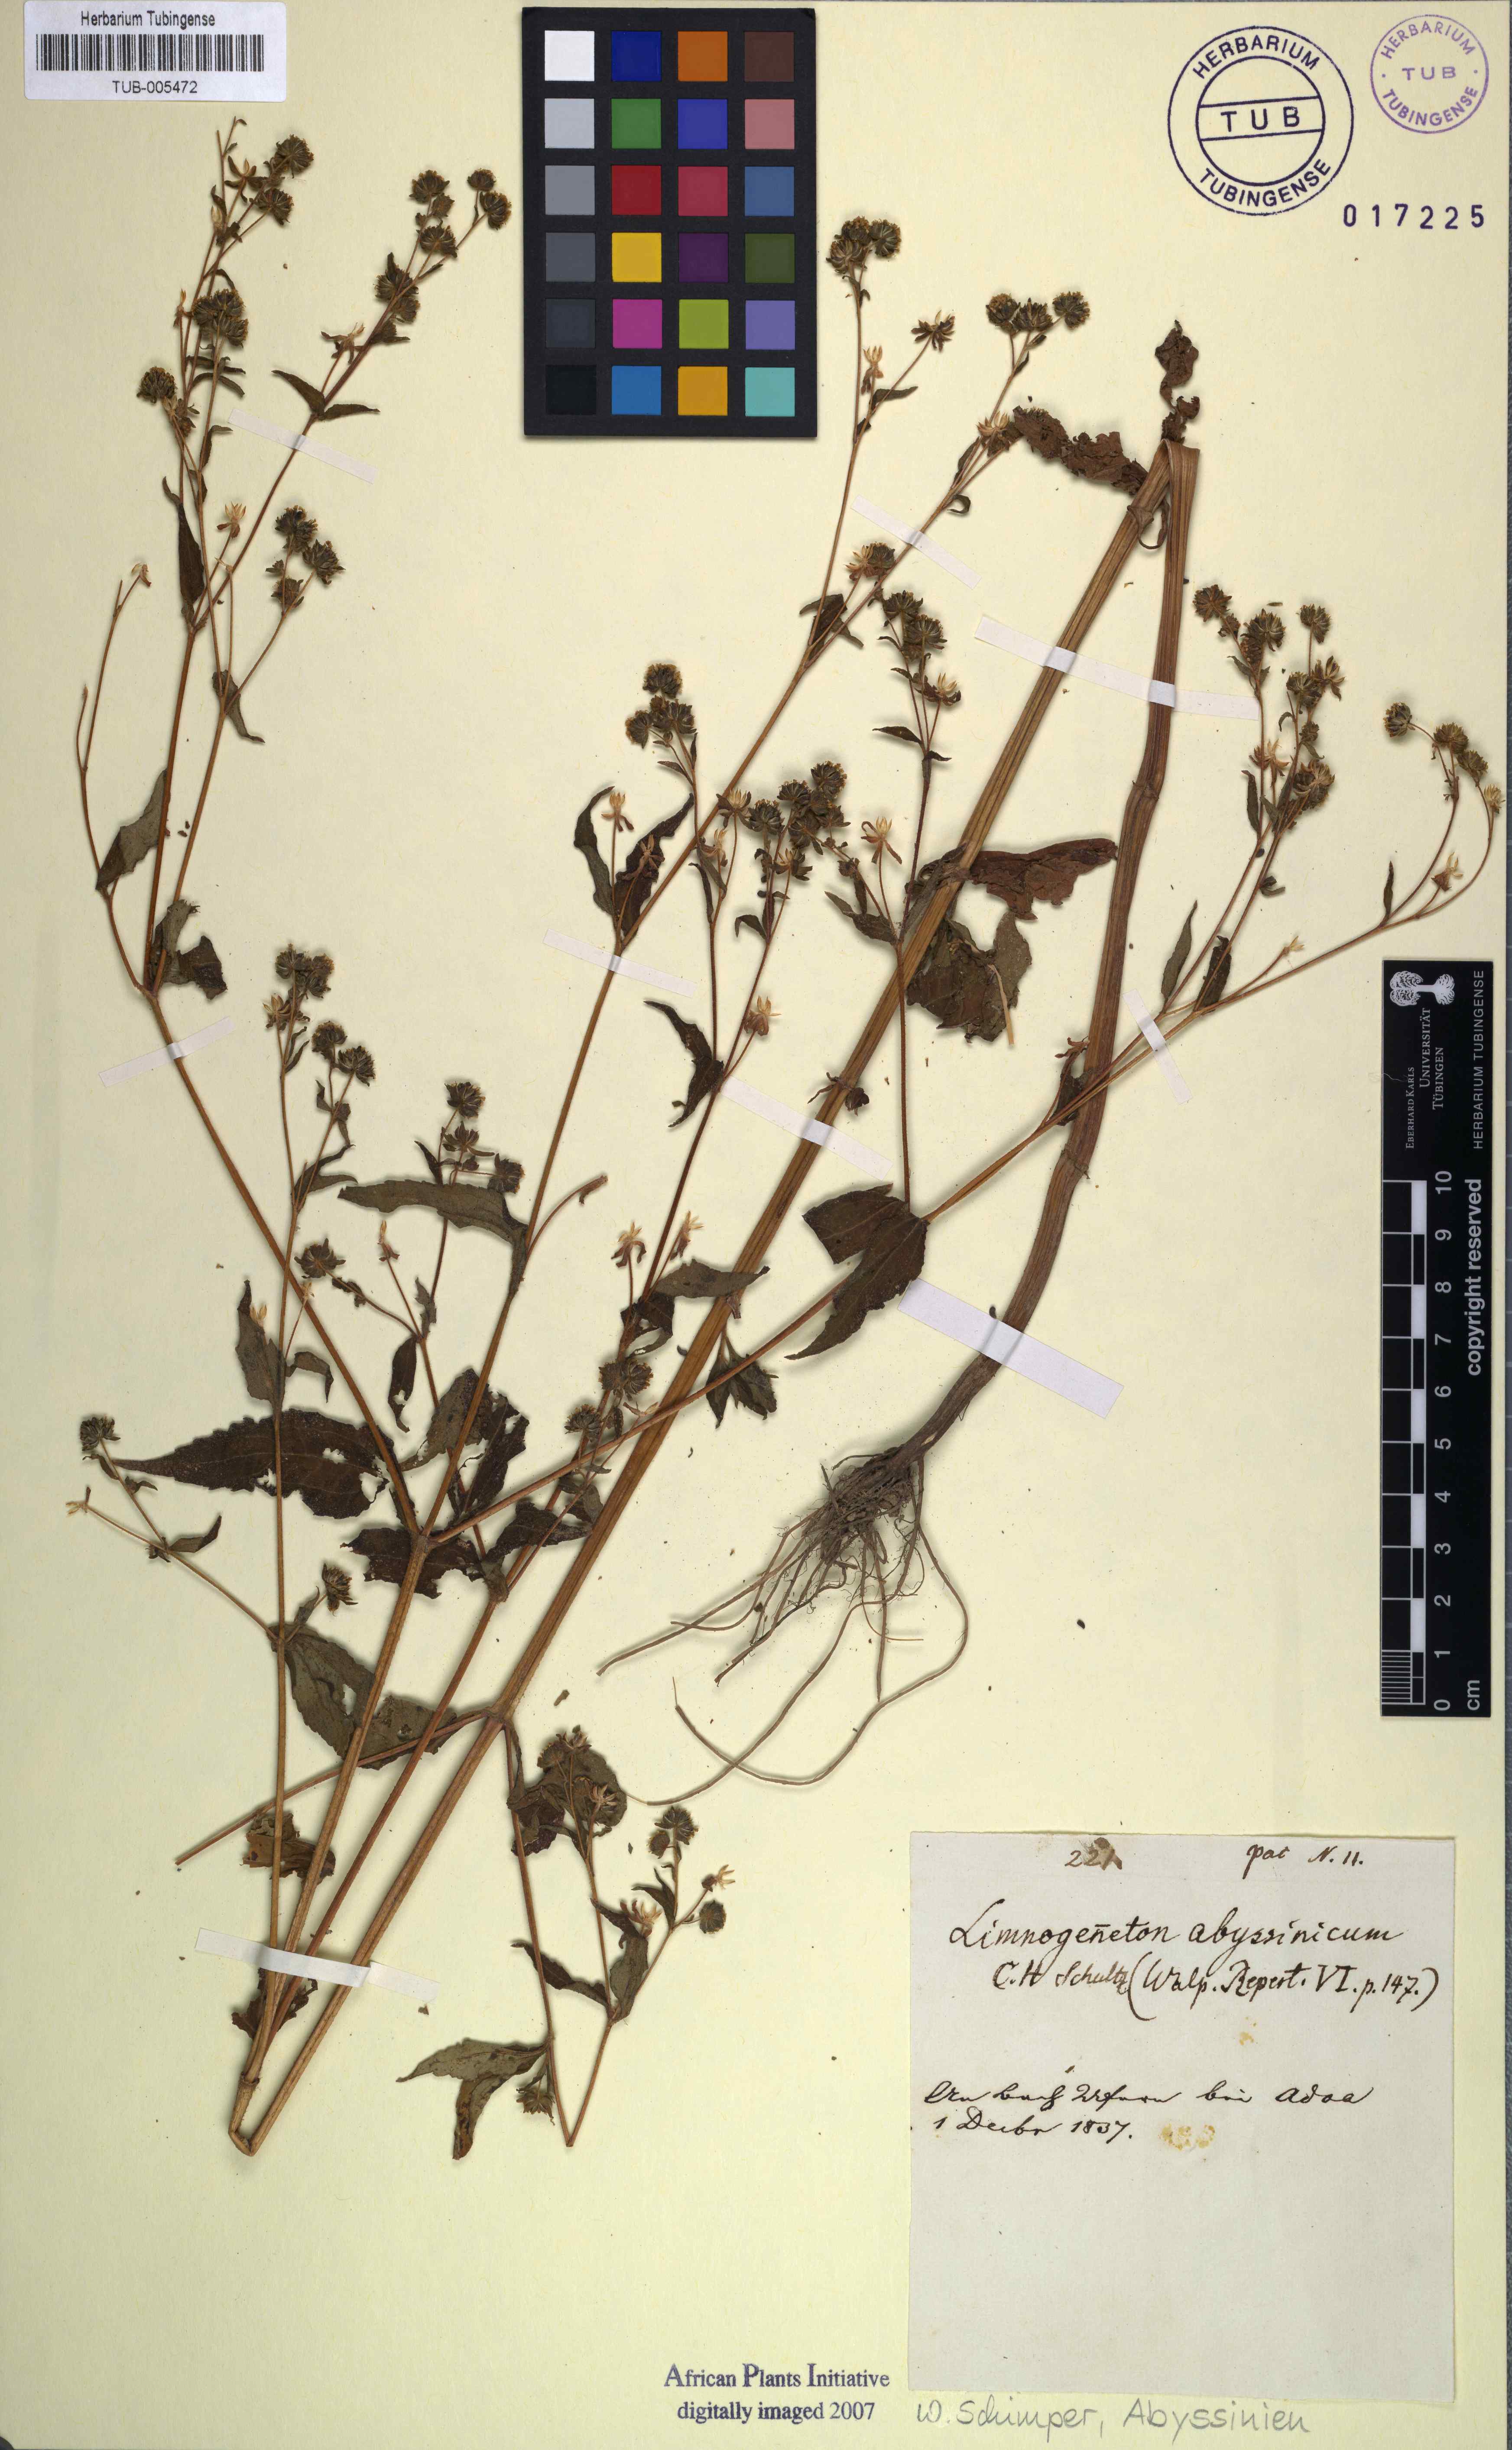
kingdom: Plantae
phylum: Tracheophyta
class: Magnoliopsida
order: Asterales
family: Asteraceae
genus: Sigesbeckia
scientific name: Sigesbeckia orientalis
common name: Eastern st paul's-wort
